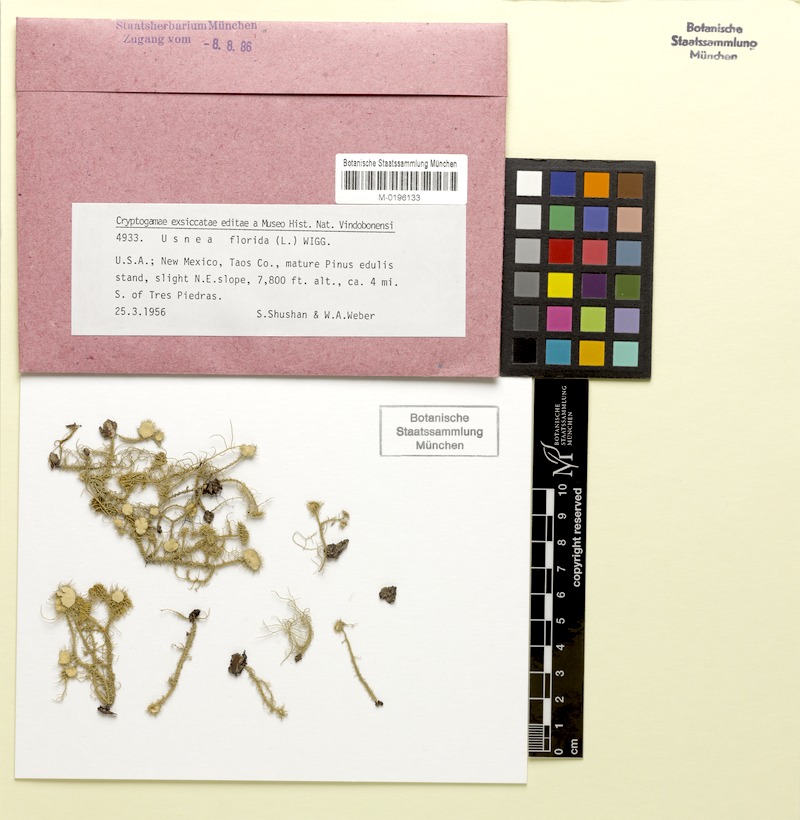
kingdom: Fungi
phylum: Ascomycota
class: Lecanoromycetes
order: Lecanorales
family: Parmeliaceae
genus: Usnea
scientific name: Usnea florida
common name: Witches' whiskers lichen
